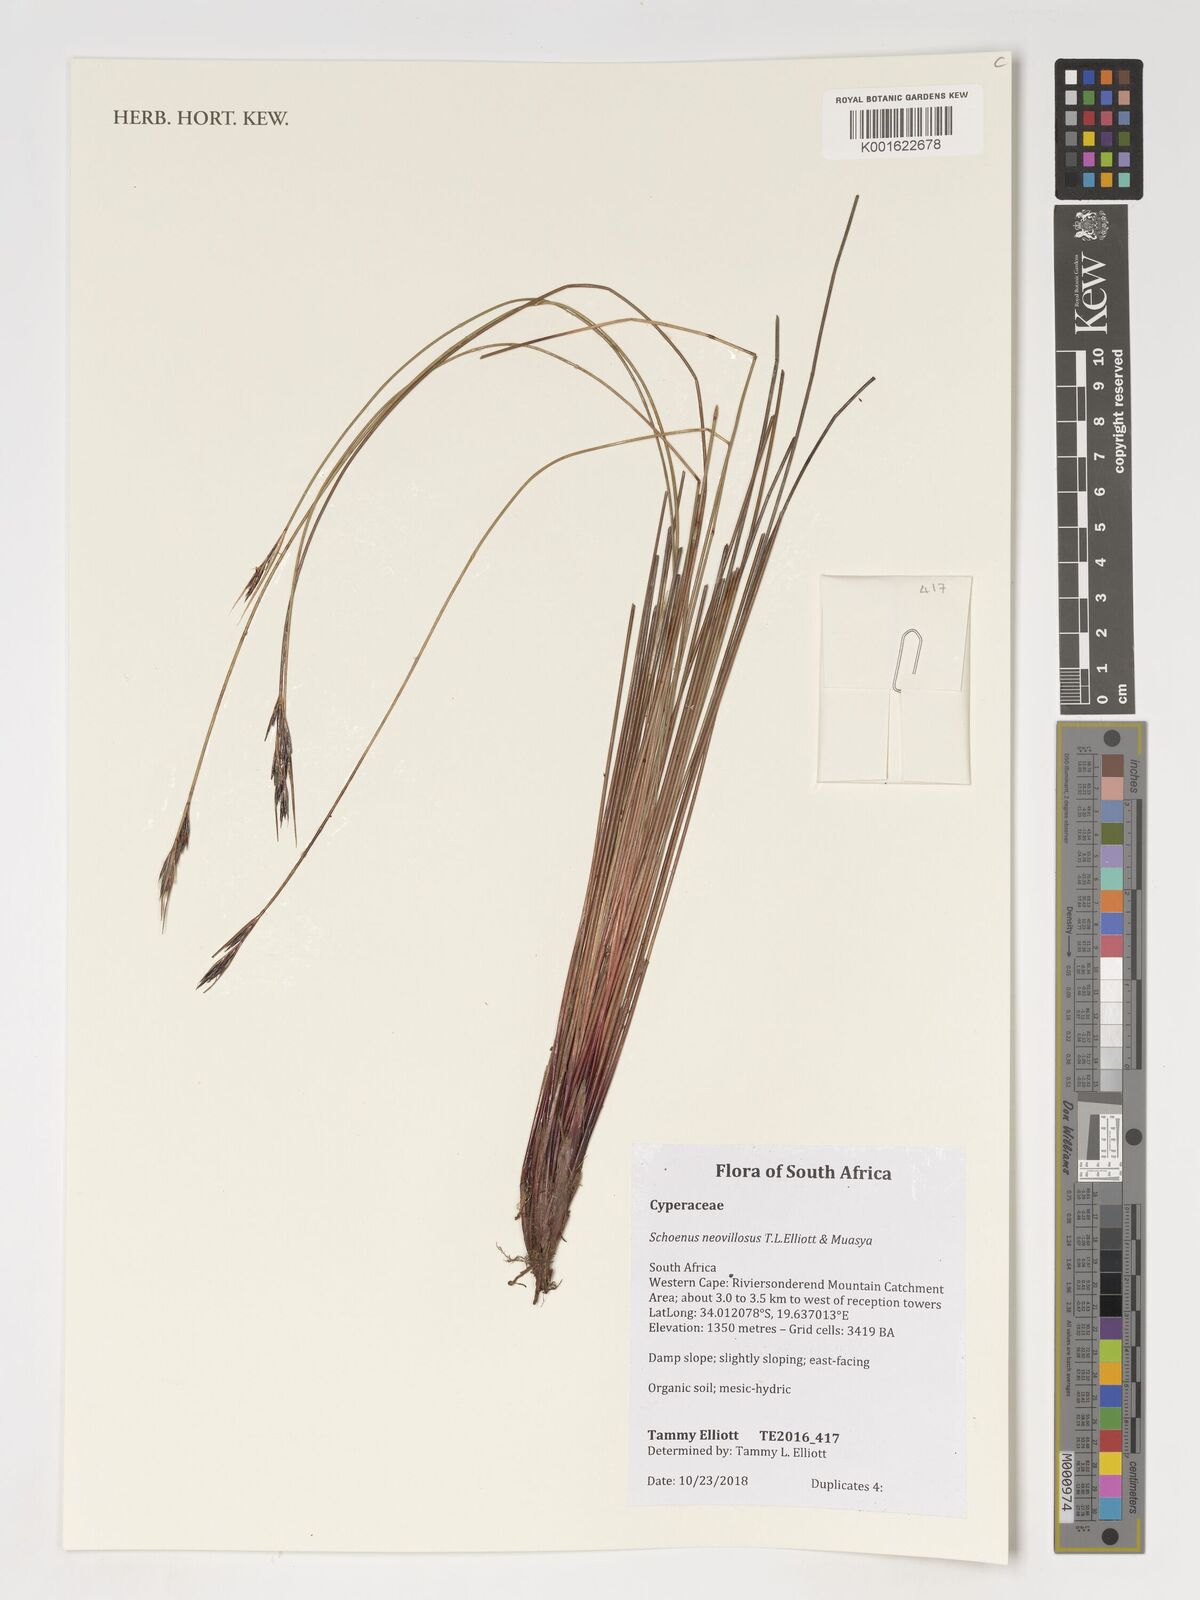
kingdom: Plantae
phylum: Tracheophyta
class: Liliopsida
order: Poales
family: Cyperaceae
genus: Schoenus
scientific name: Schoenus neovillosus
